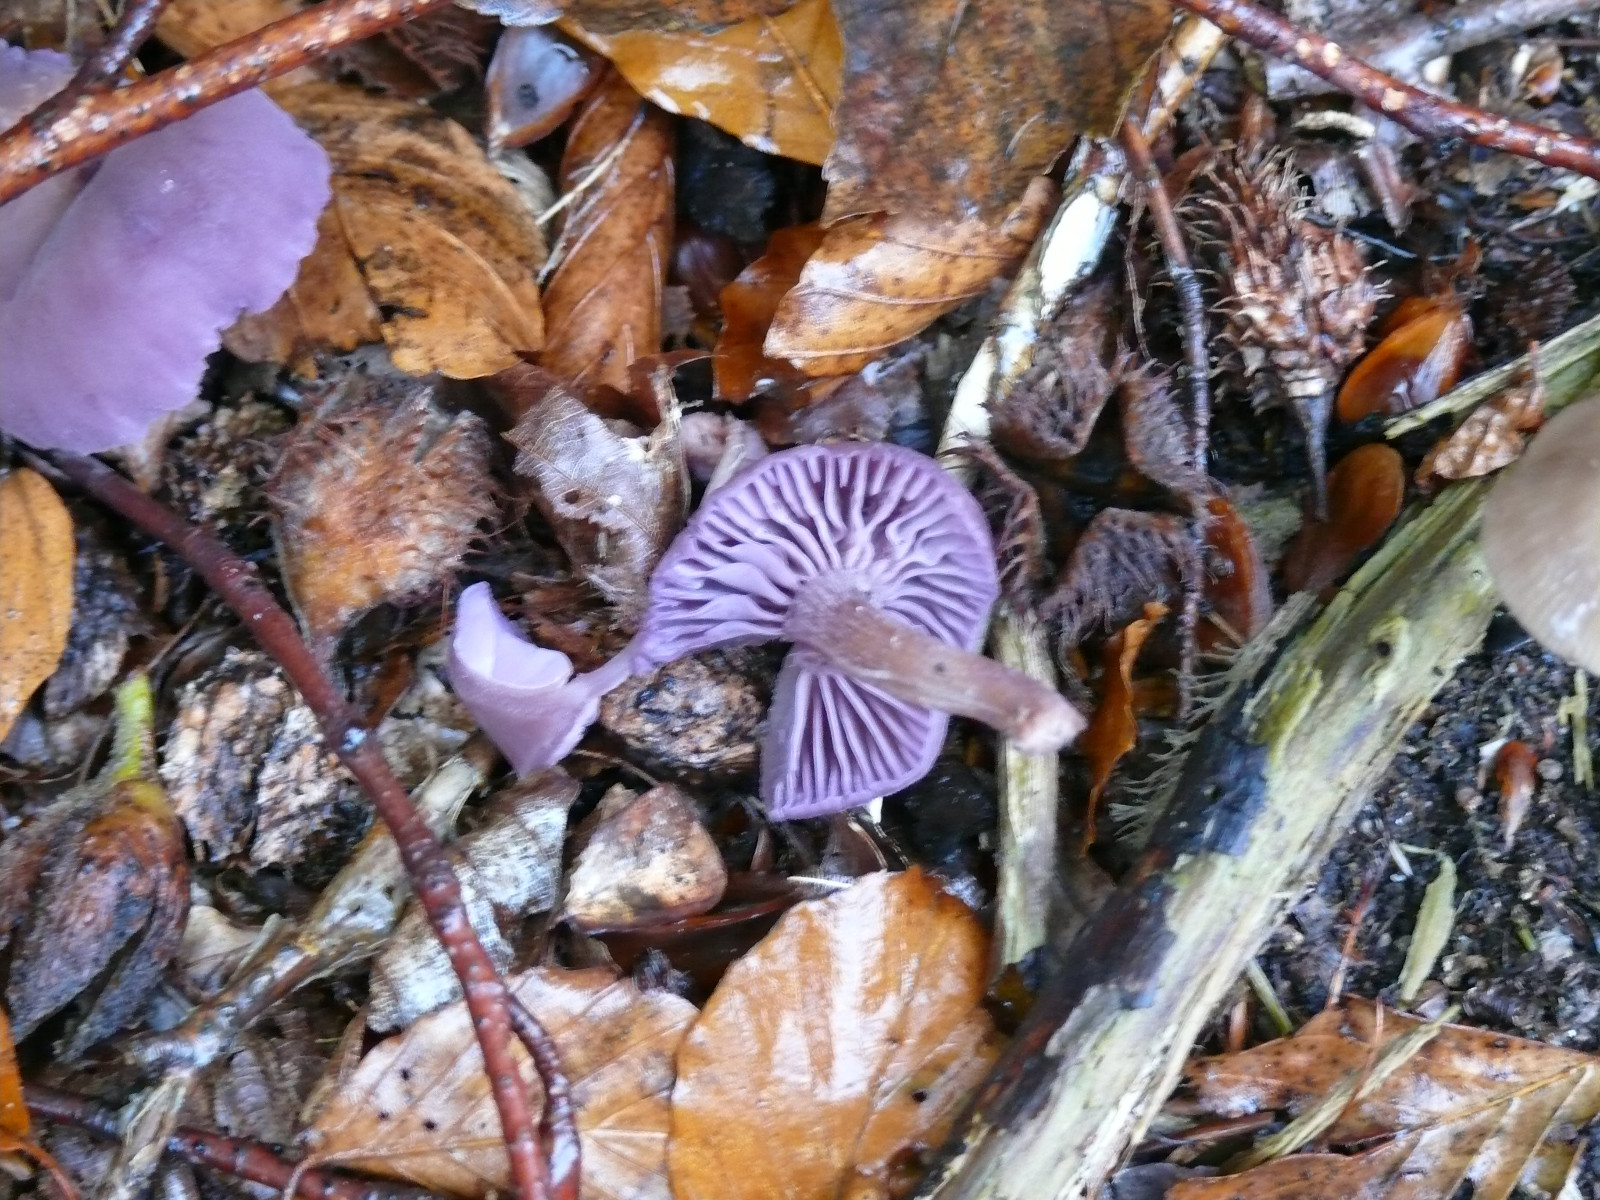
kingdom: Fungi
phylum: Basidiomycota
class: Agaricomycetes
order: Agaricales
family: Hydnangiaceae
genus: Laccaria
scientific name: Laccaria amethystina
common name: violet ametysthat
